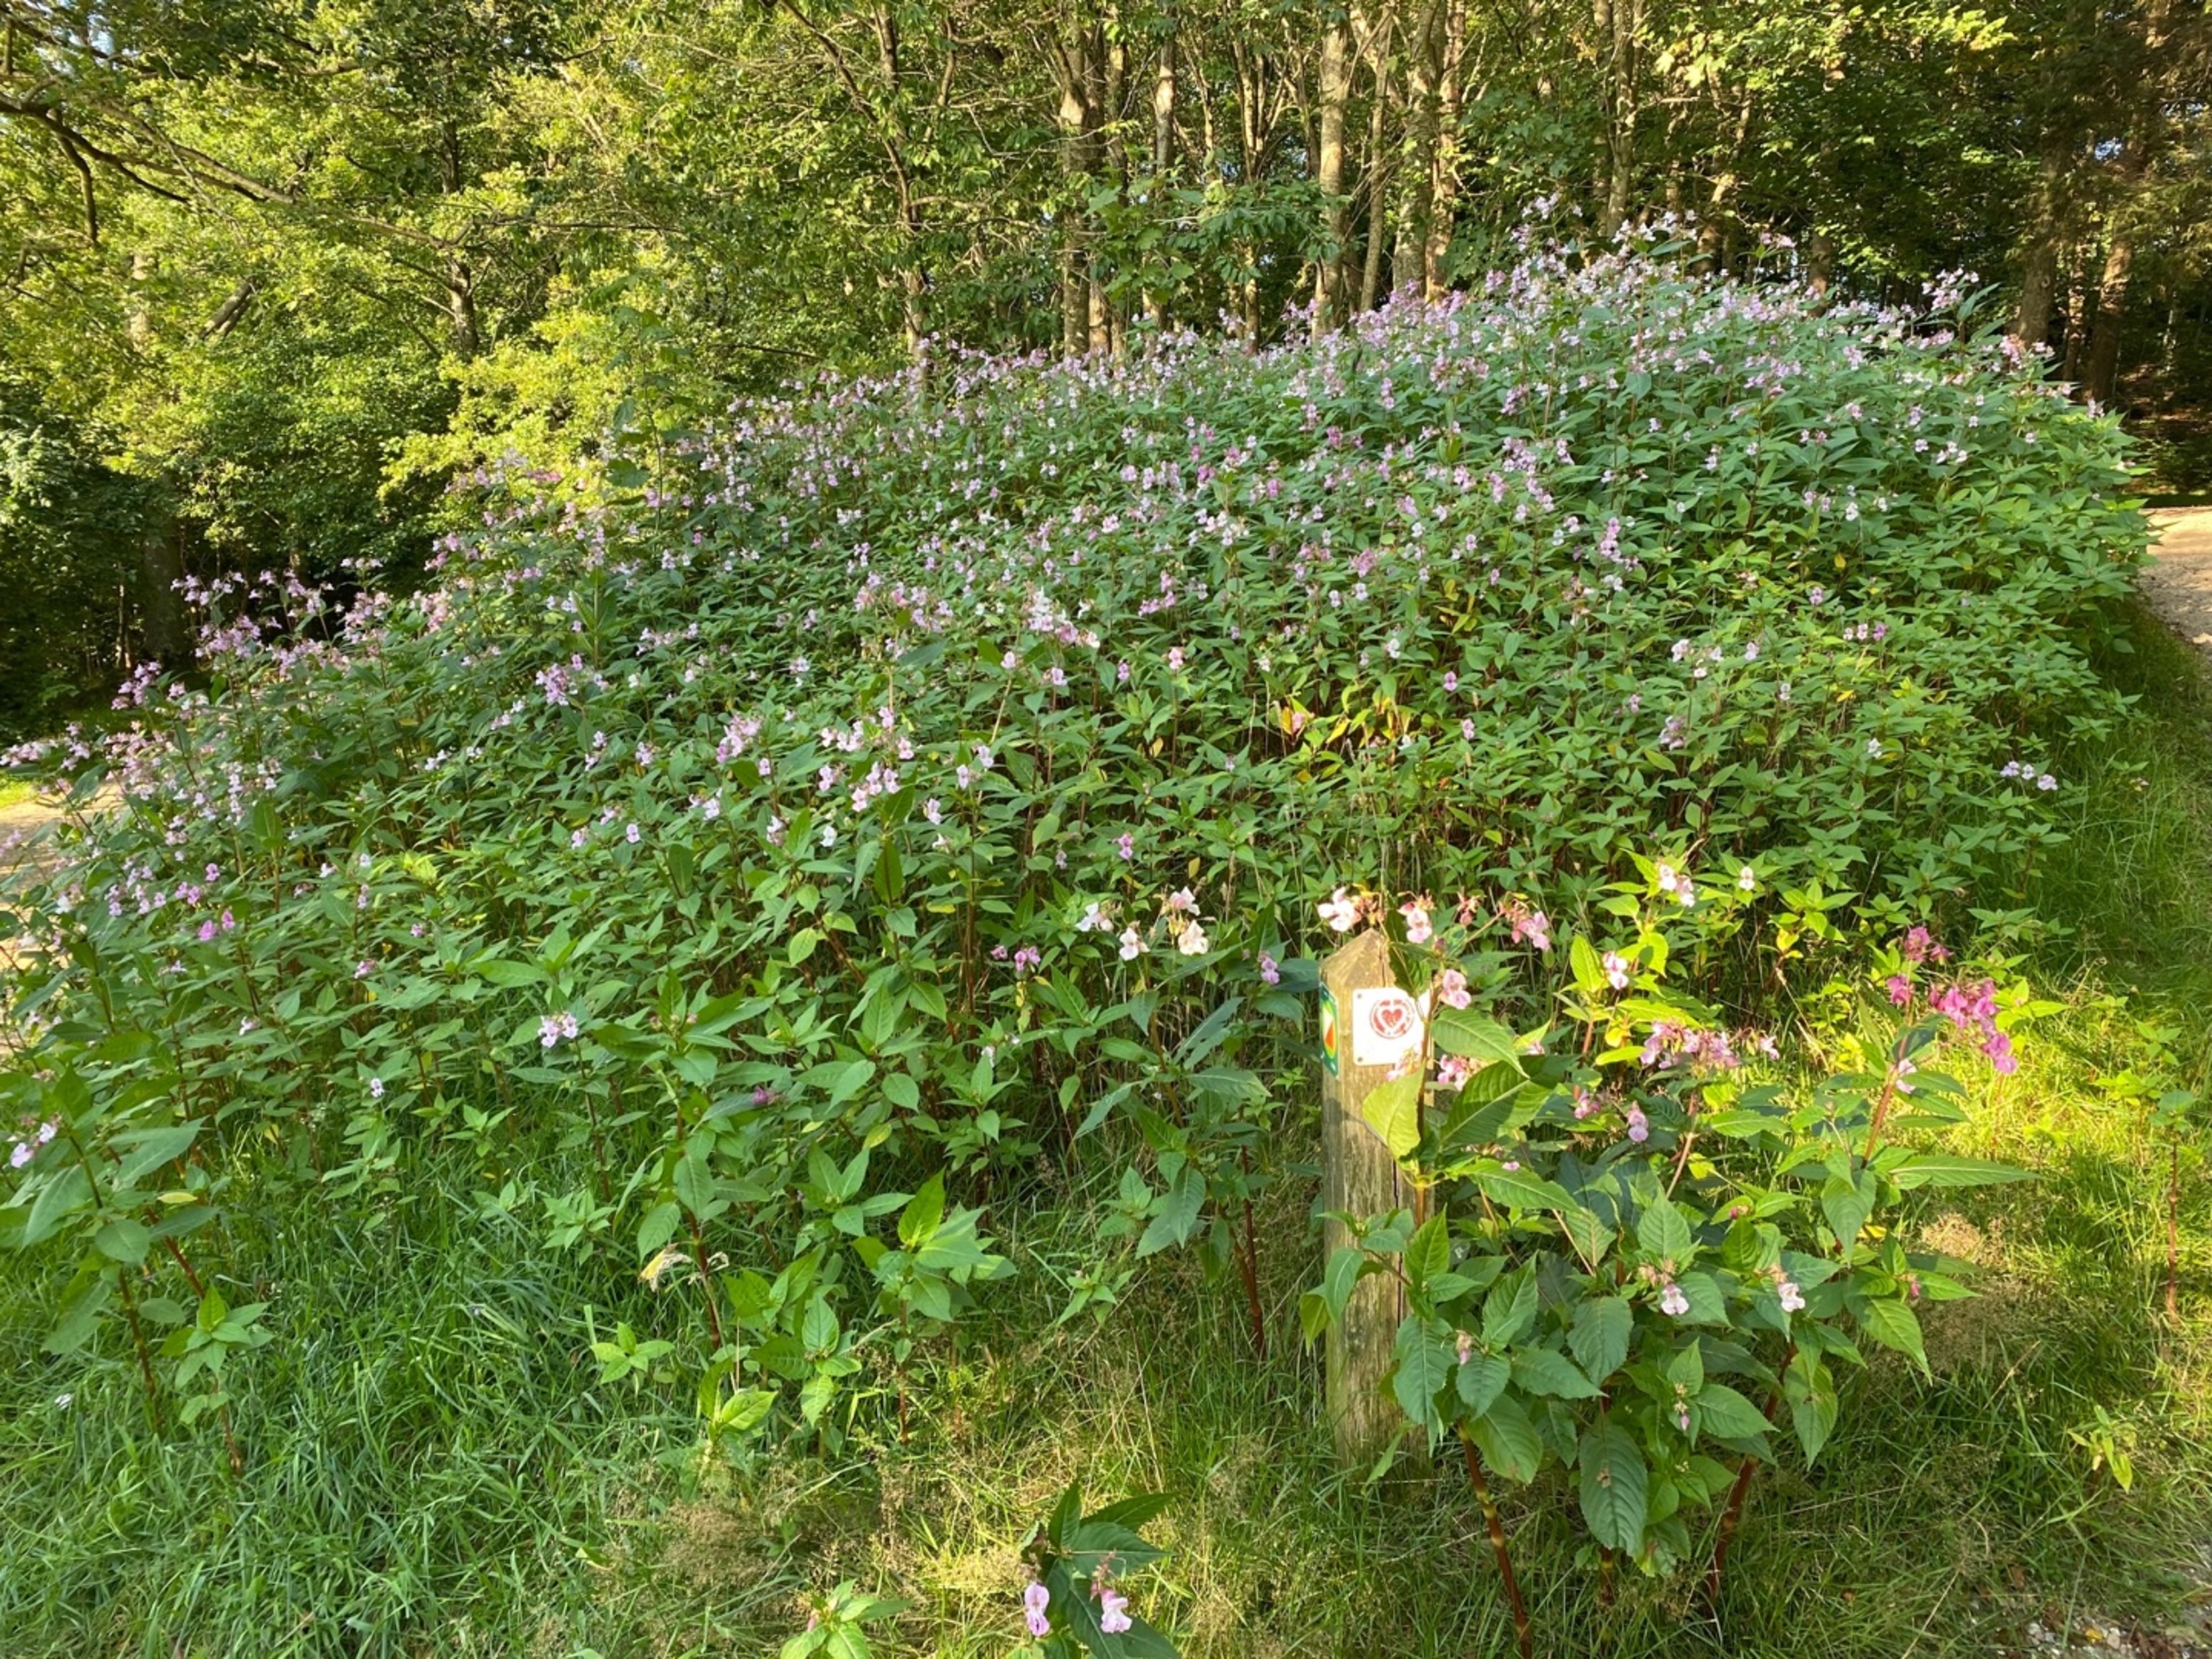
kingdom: Plantae
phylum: Tracheophyta
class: Magnoliopsida
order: Ericales
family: Balsaminaceae
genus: Impatiens
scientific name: Impatiens glandulifera
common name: Kæmpe-balsamin
